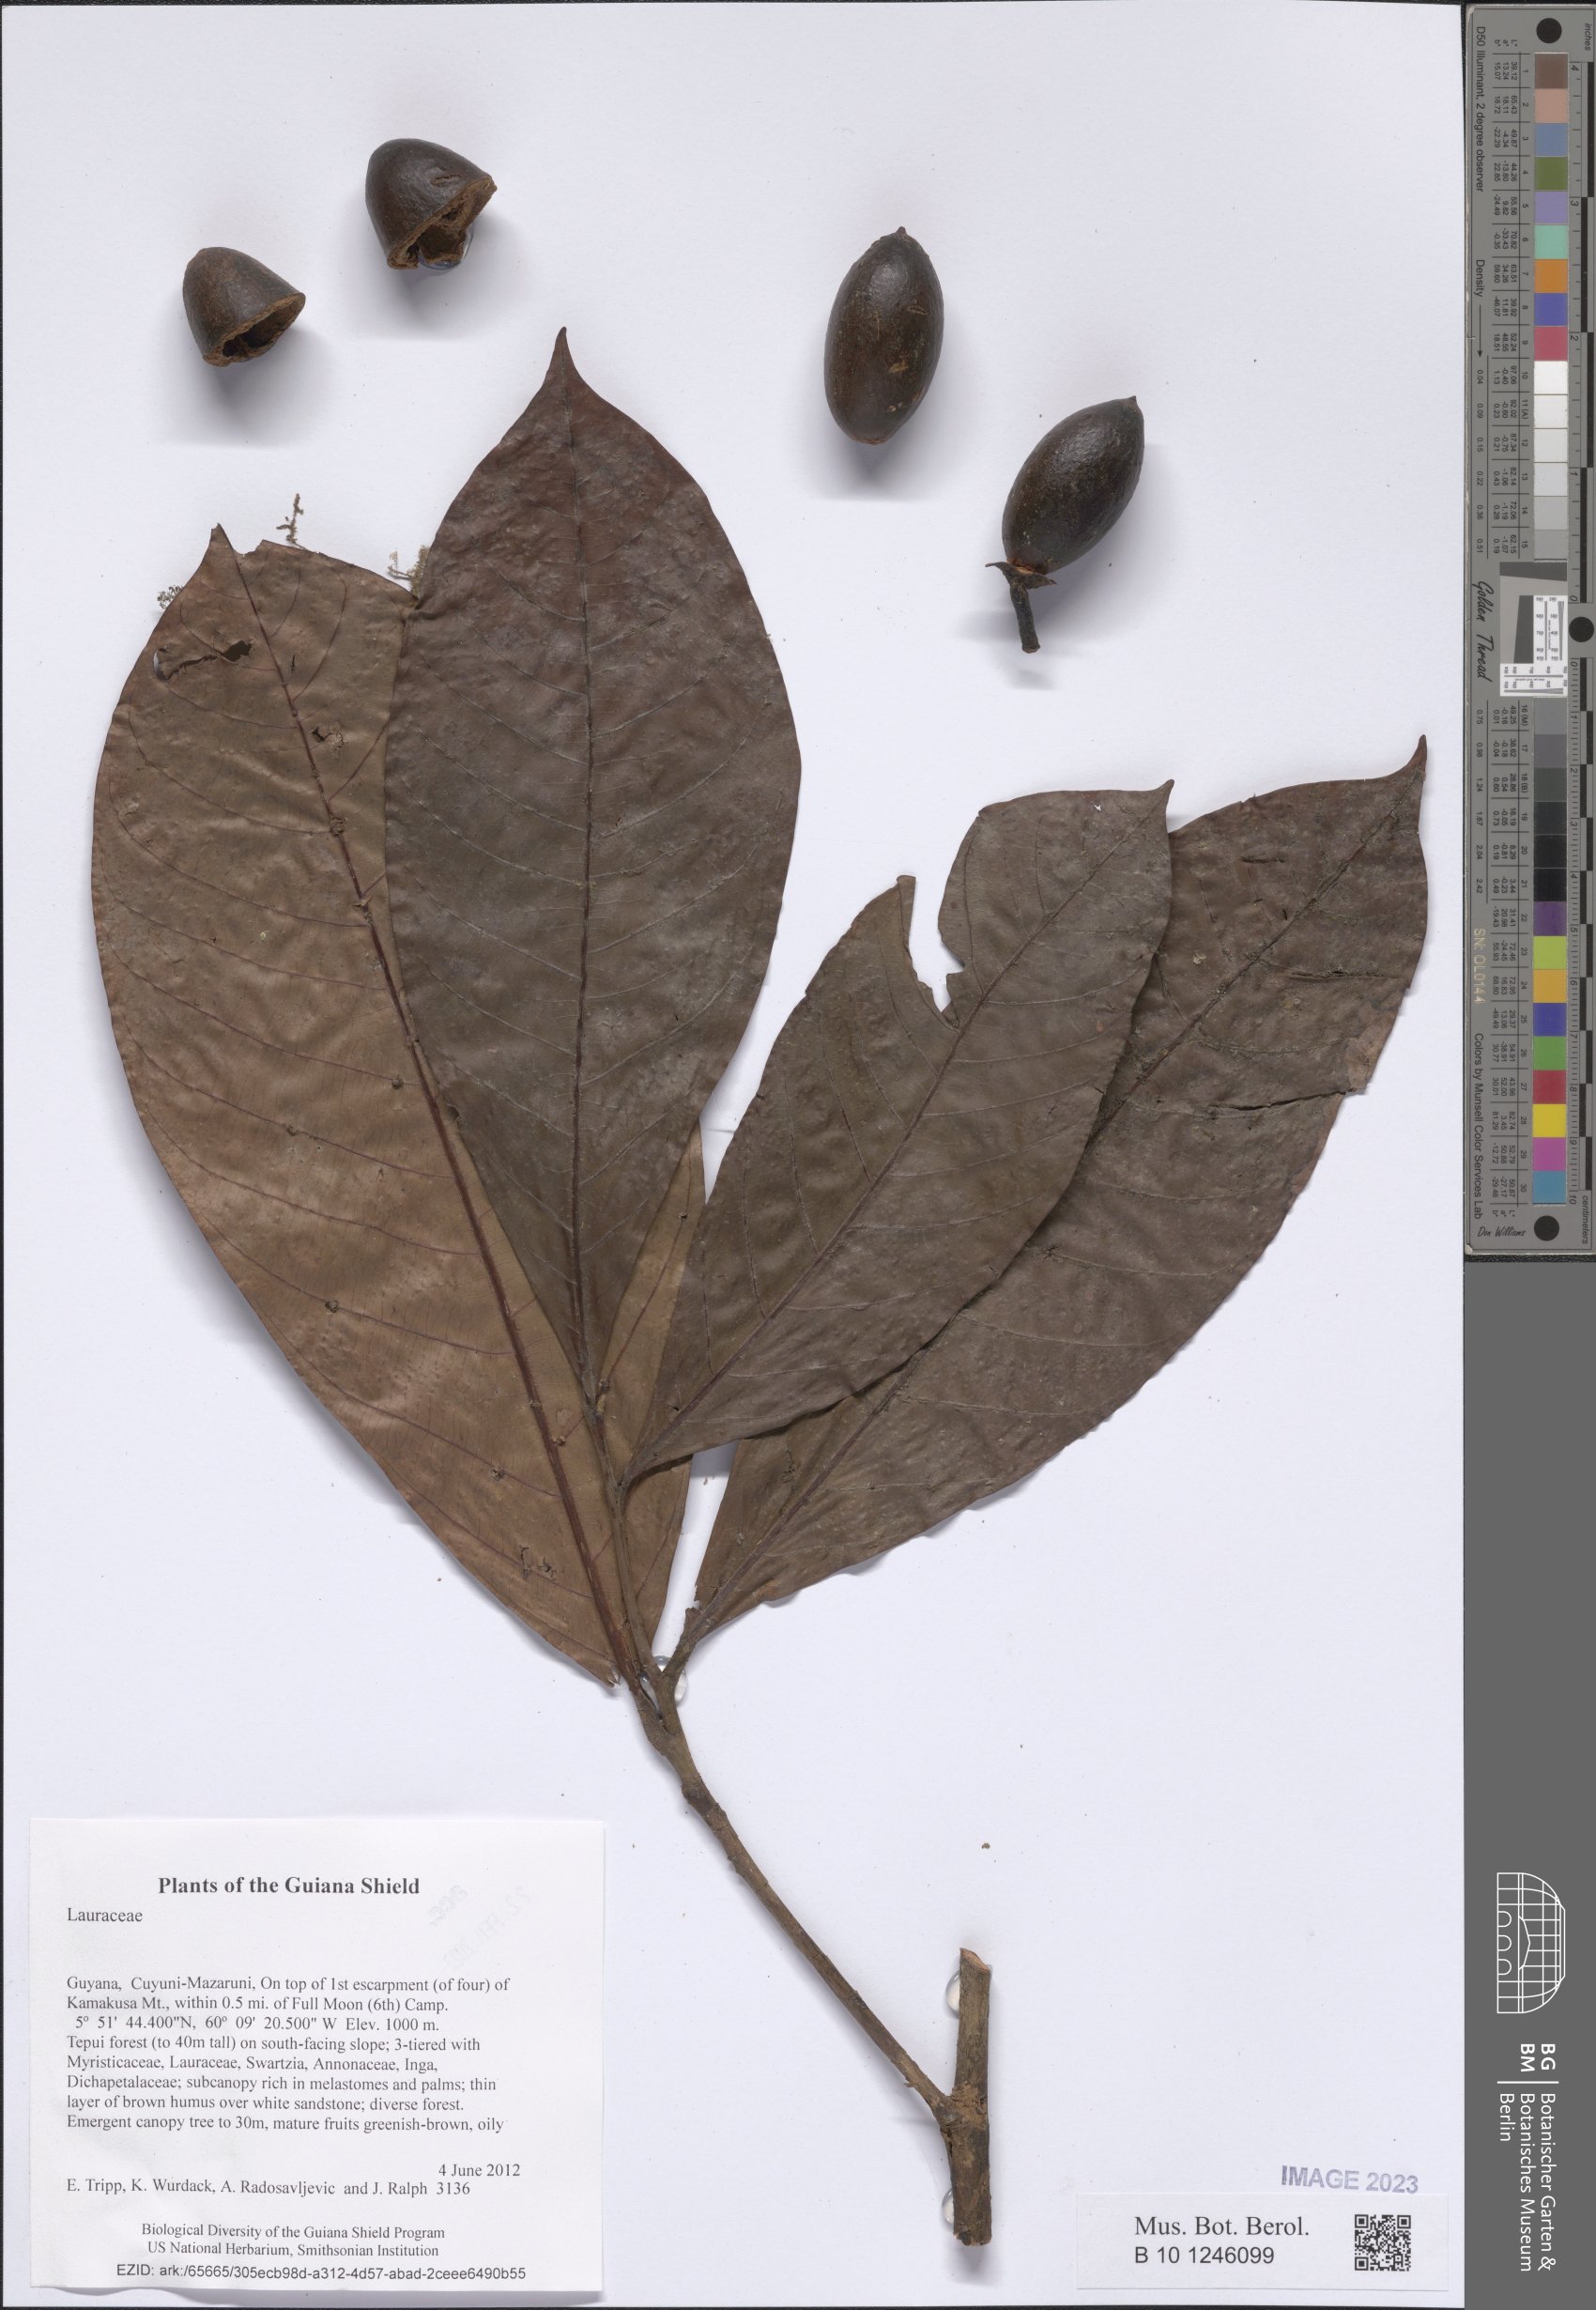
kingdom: Plantae
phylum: Tracheophyta
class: Magnoliopsida
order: Laurales
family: Lauraceae
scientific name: Lauraceae
